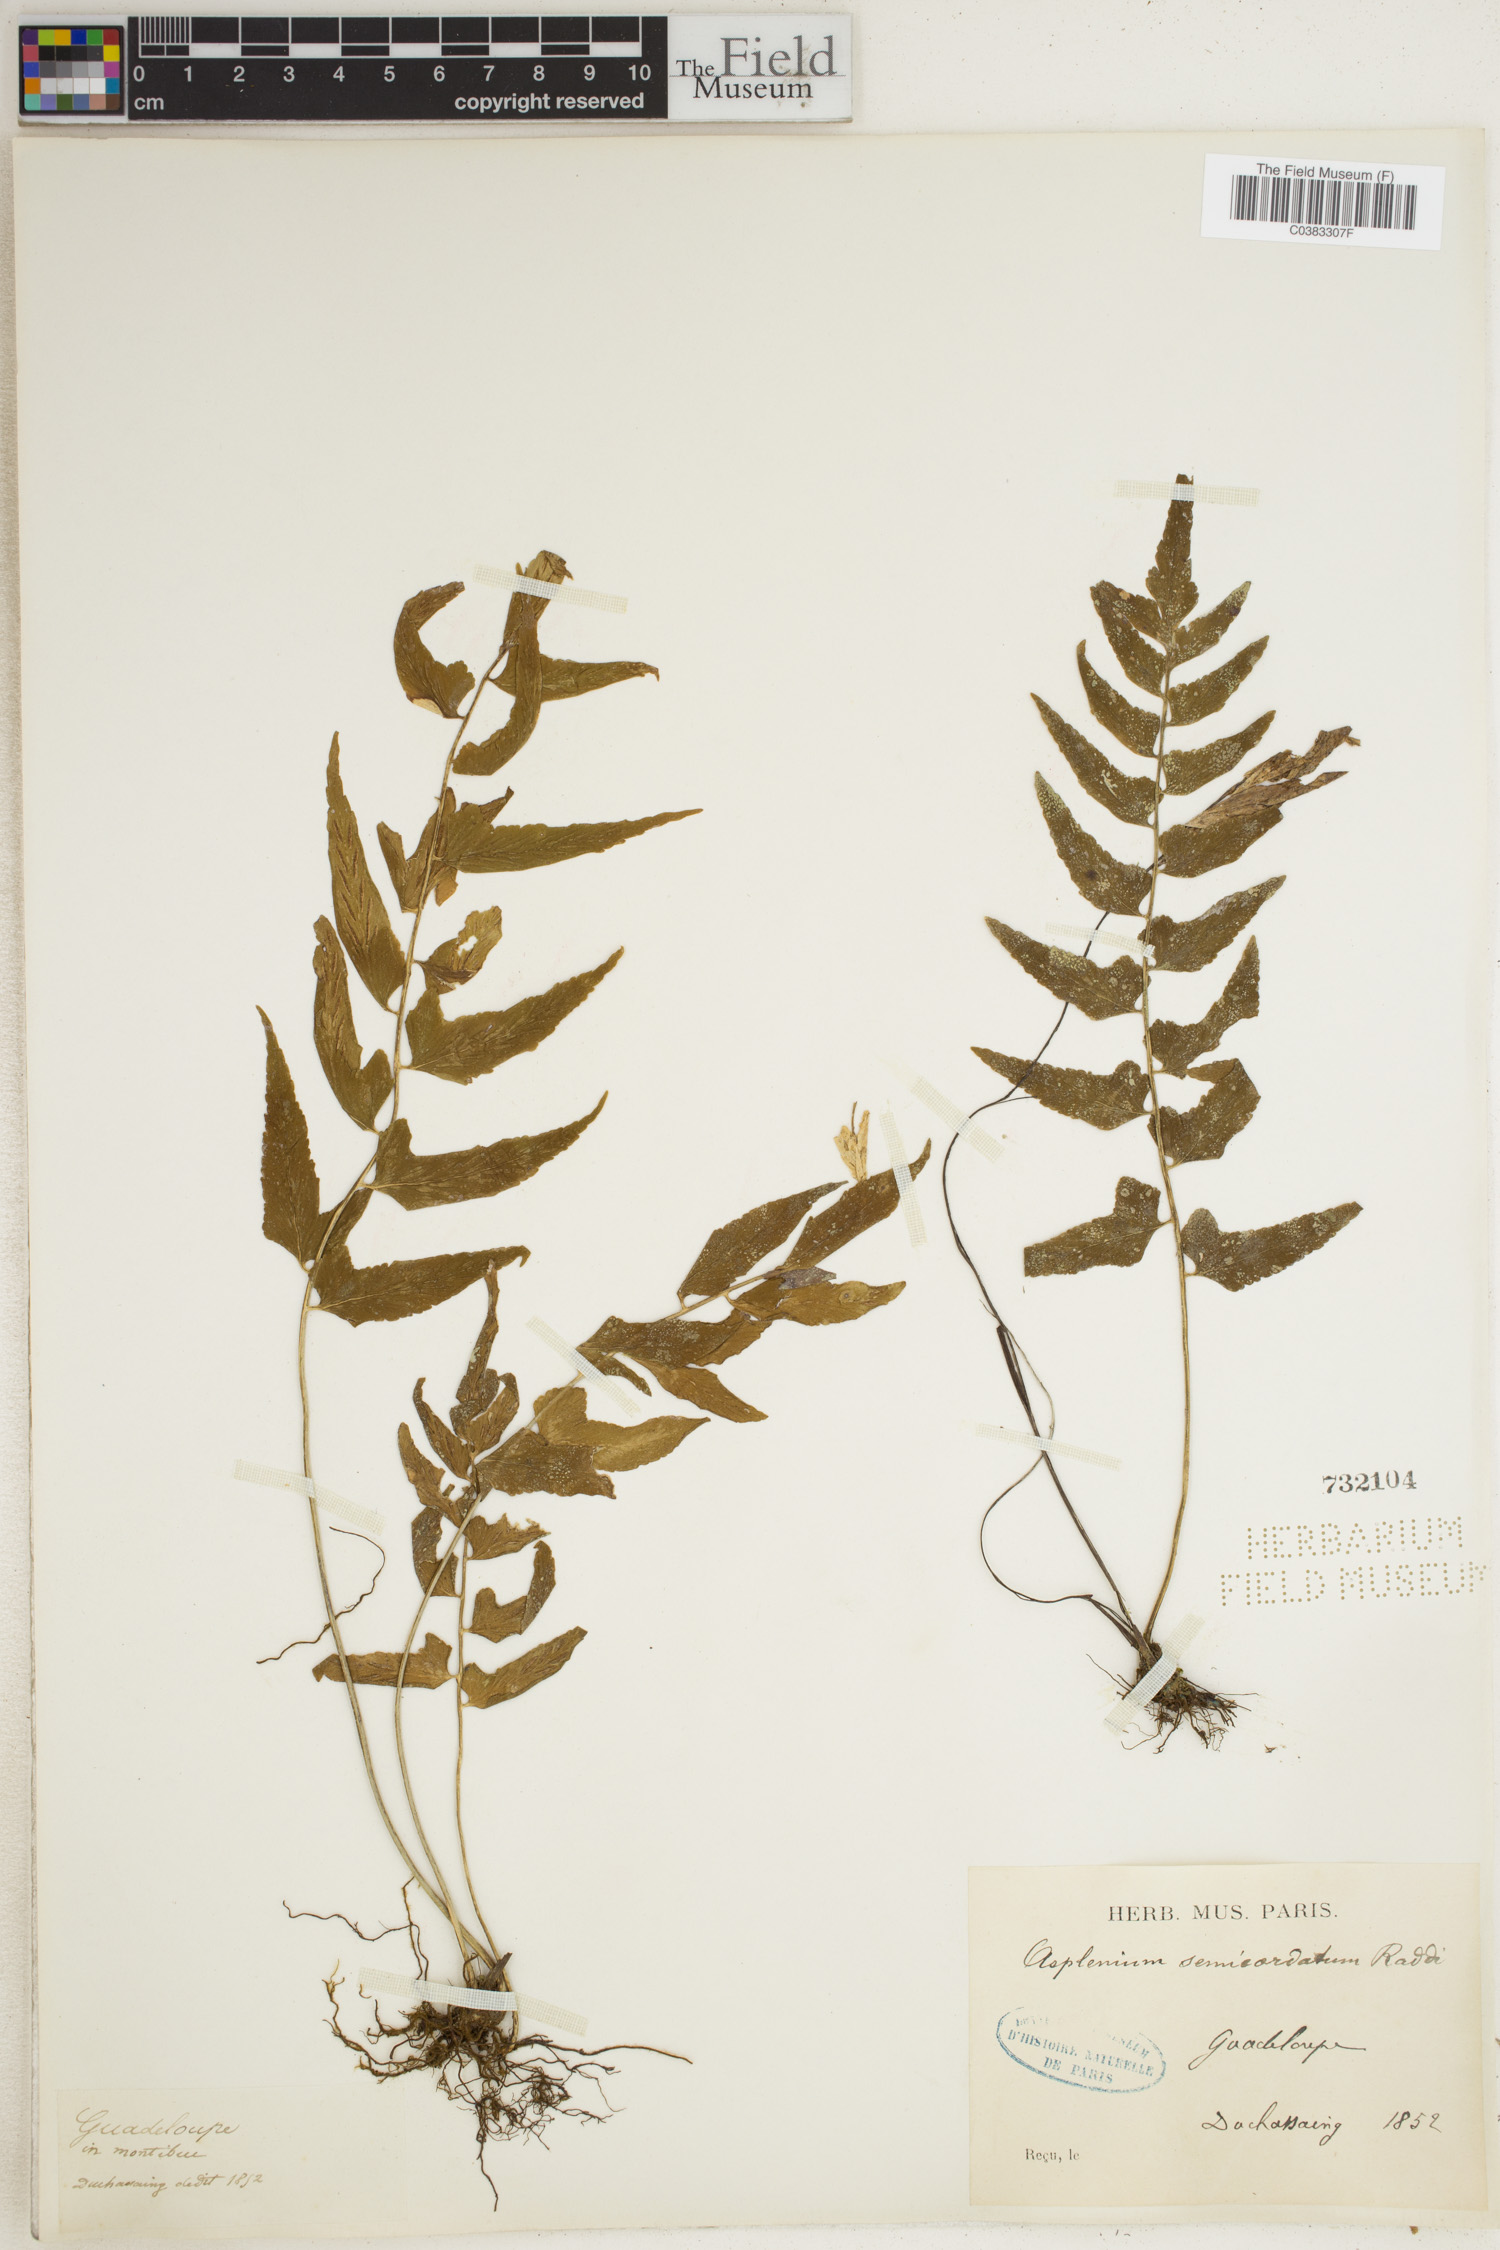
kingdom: Plantae
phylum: Tracheophyta
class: Polypodiopsida
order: Polypodiales
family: Aspleniaceae
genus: Asplenium
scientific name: Asplenium auriculatum
